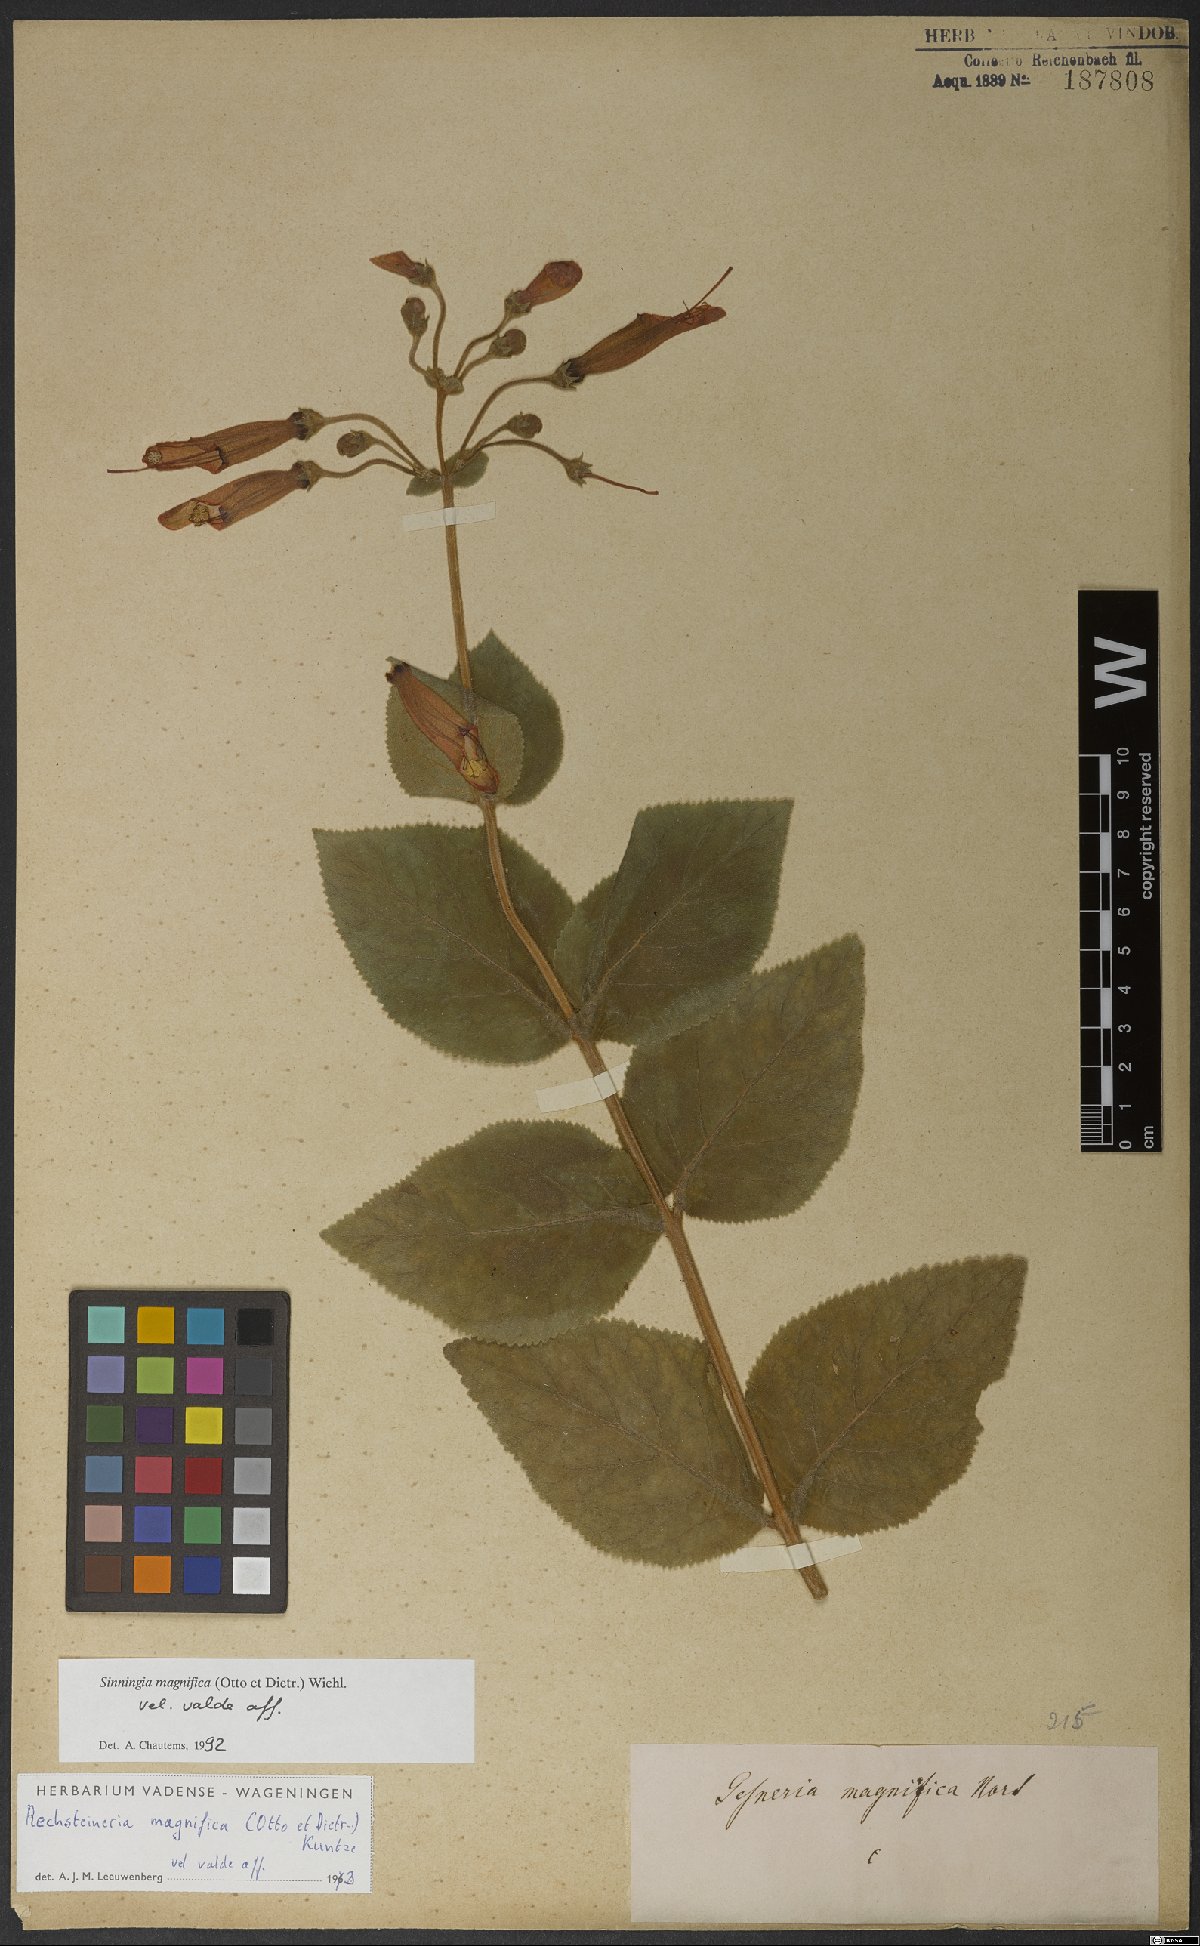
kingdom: Plantae
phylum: Tracheophyta
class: Magnoliopsida
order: Lamiales
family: Gesneriaceae
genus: Sinningia
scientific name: Sinningia magnifica
